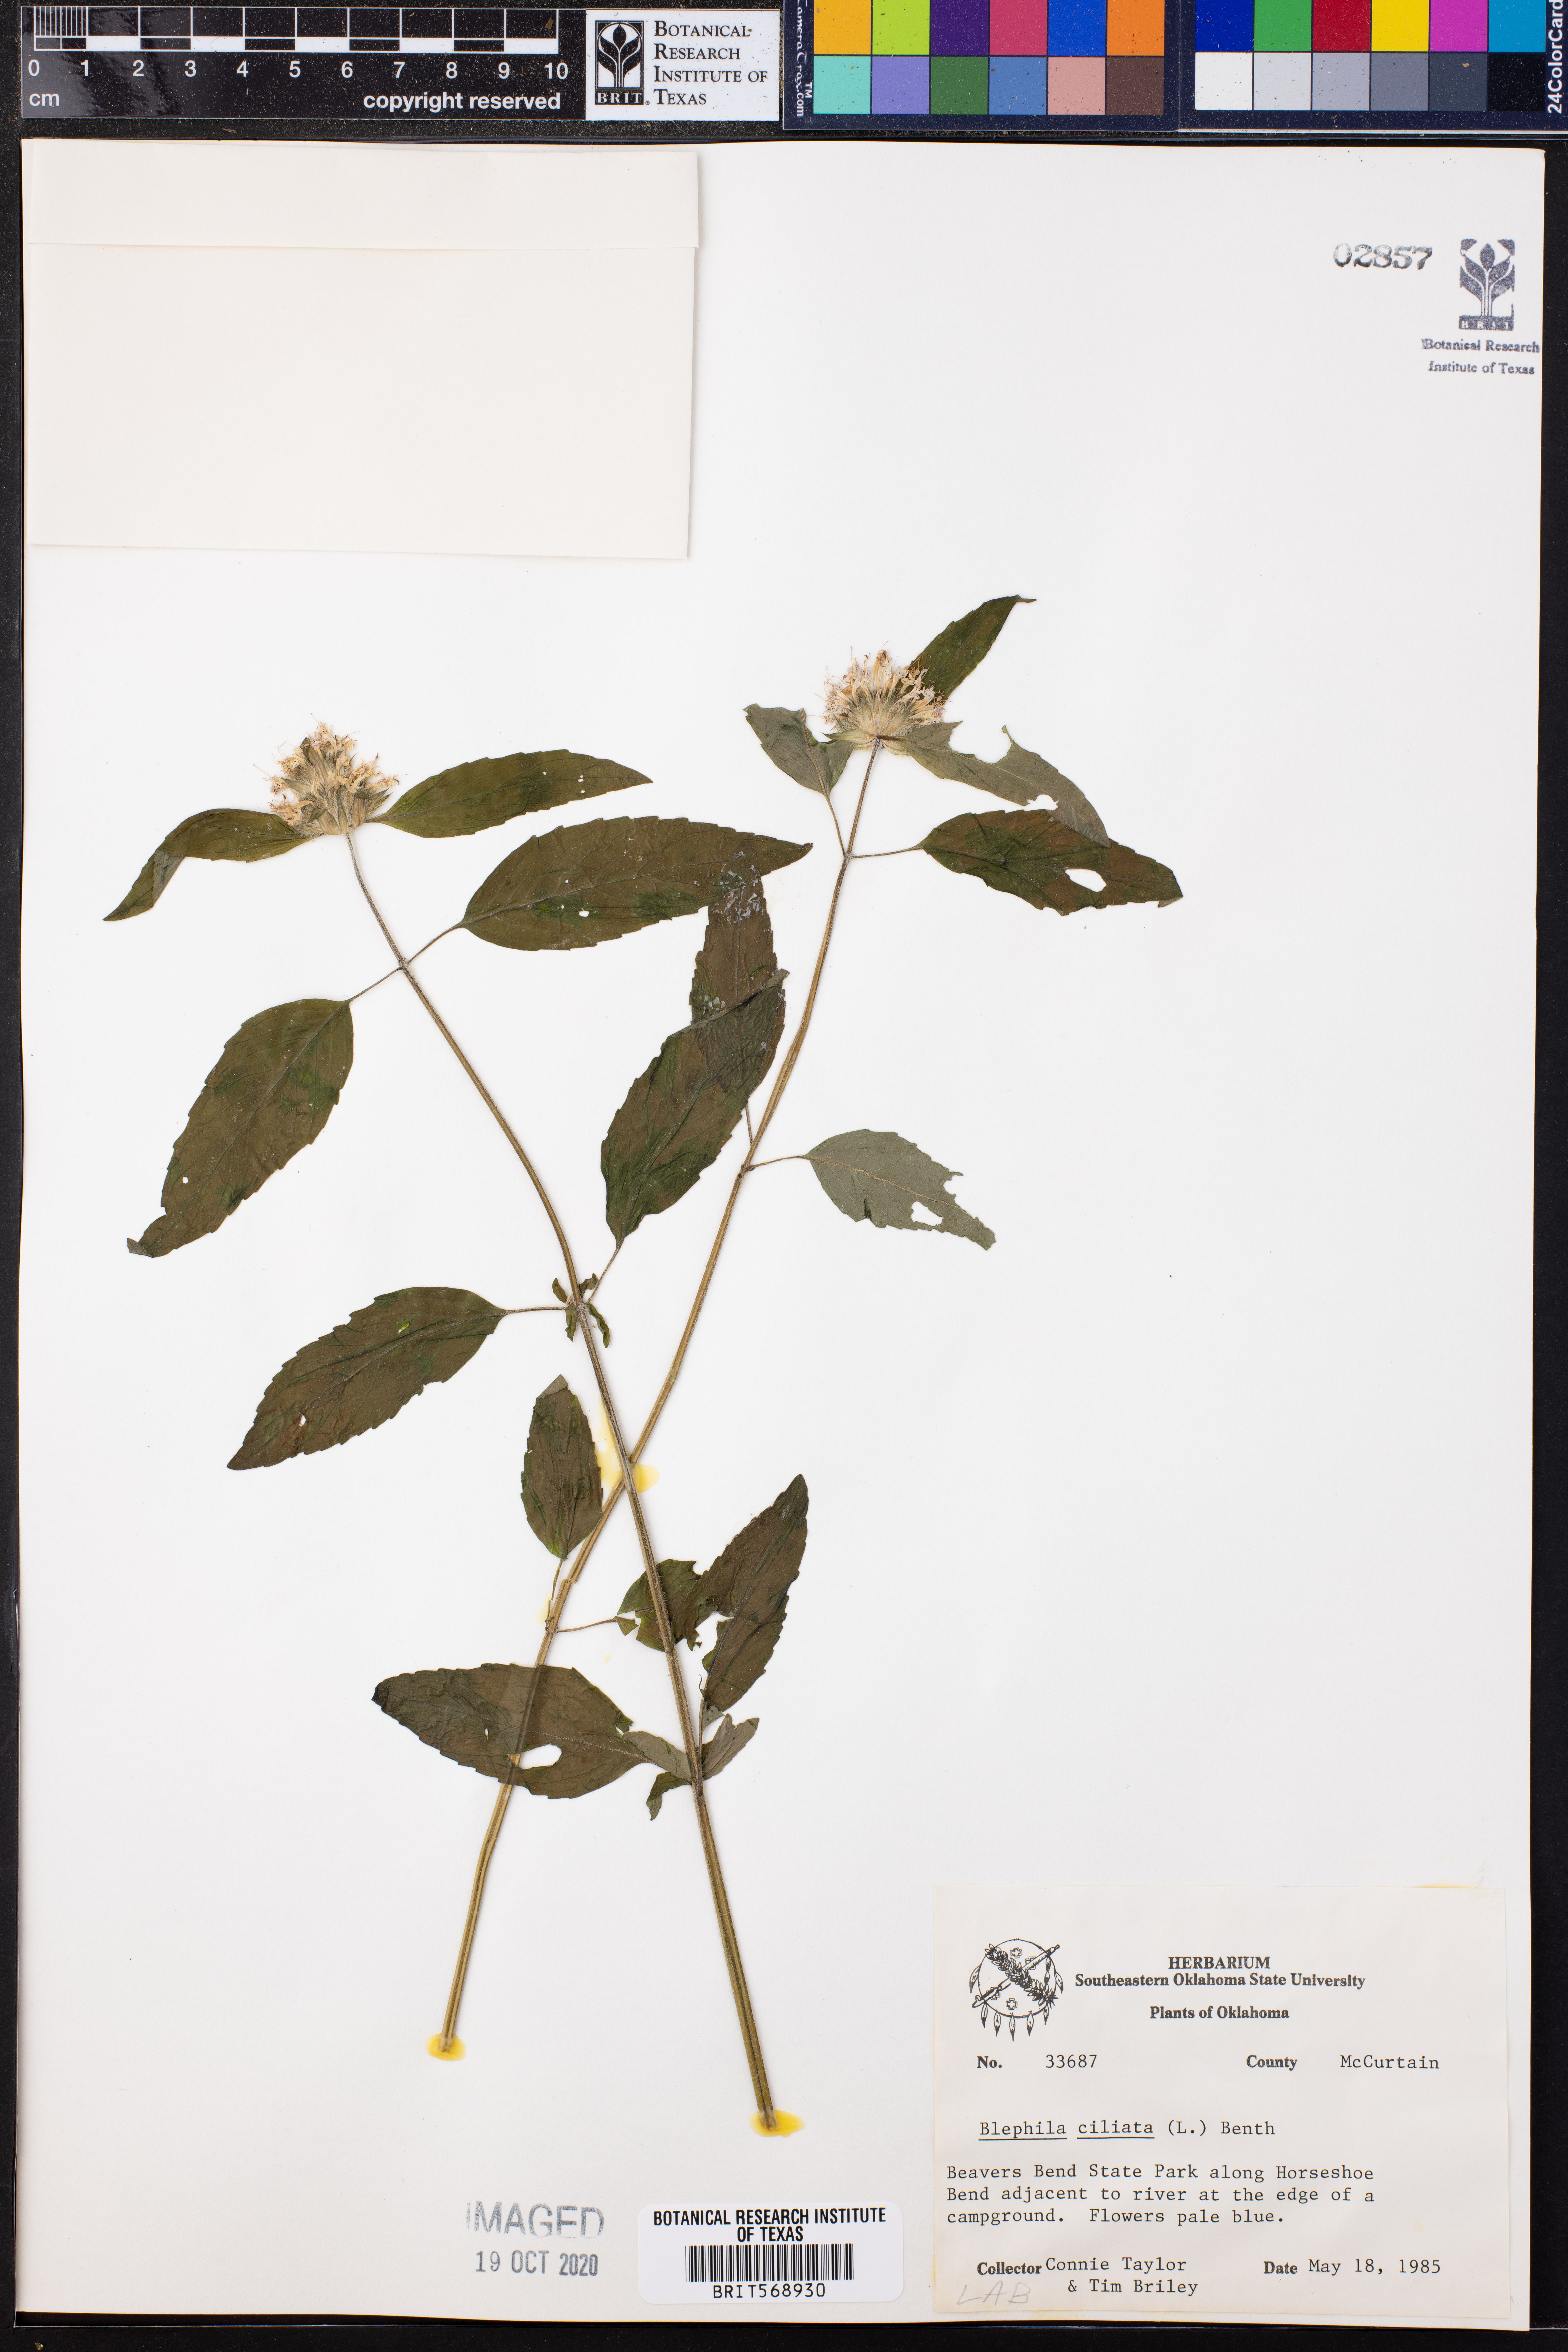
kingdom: Plantae
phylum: Tracheophyta
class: Magnoliopsida
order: Lamiales
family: Lamiaceae
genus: Blephilia
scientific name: Blephilia ciliata
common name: Downy blephilia
